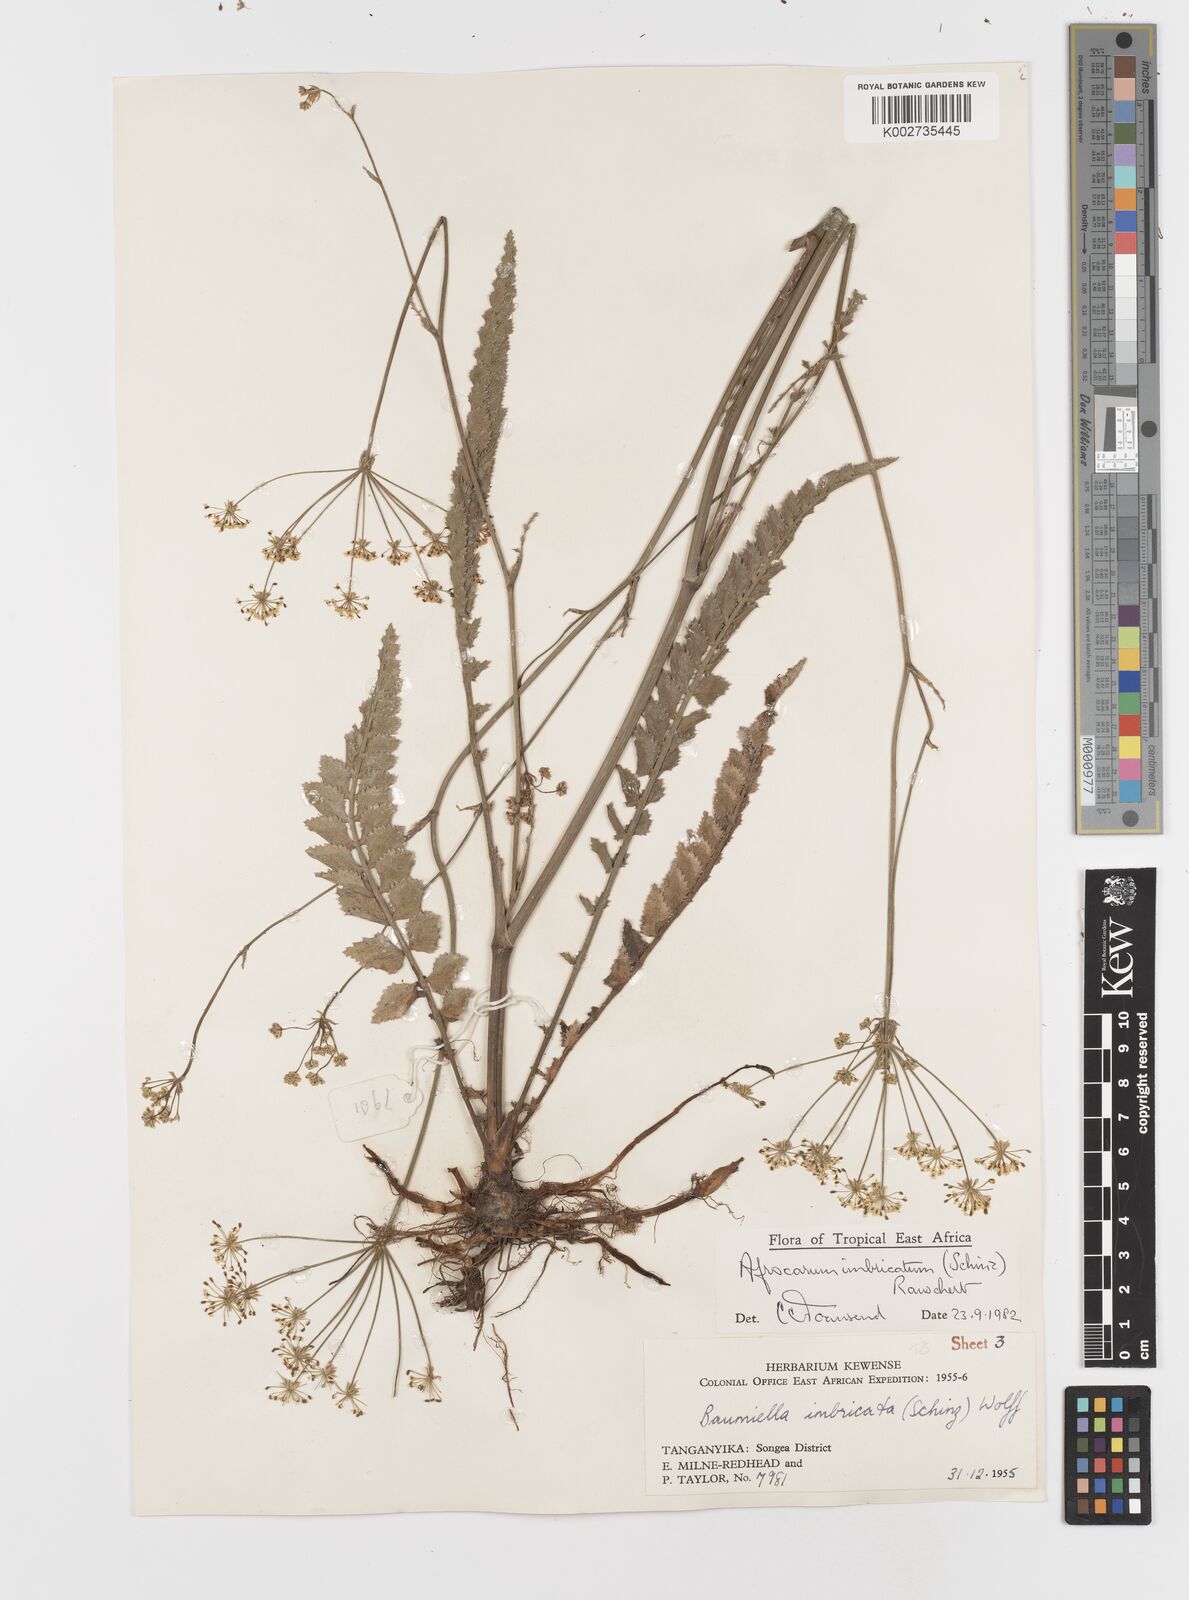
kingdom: Plantae
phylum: Tracheophyta
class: Magnoliopsida
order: Apiales
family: Apiaceae
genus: Berula
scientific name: Berula imbricata
